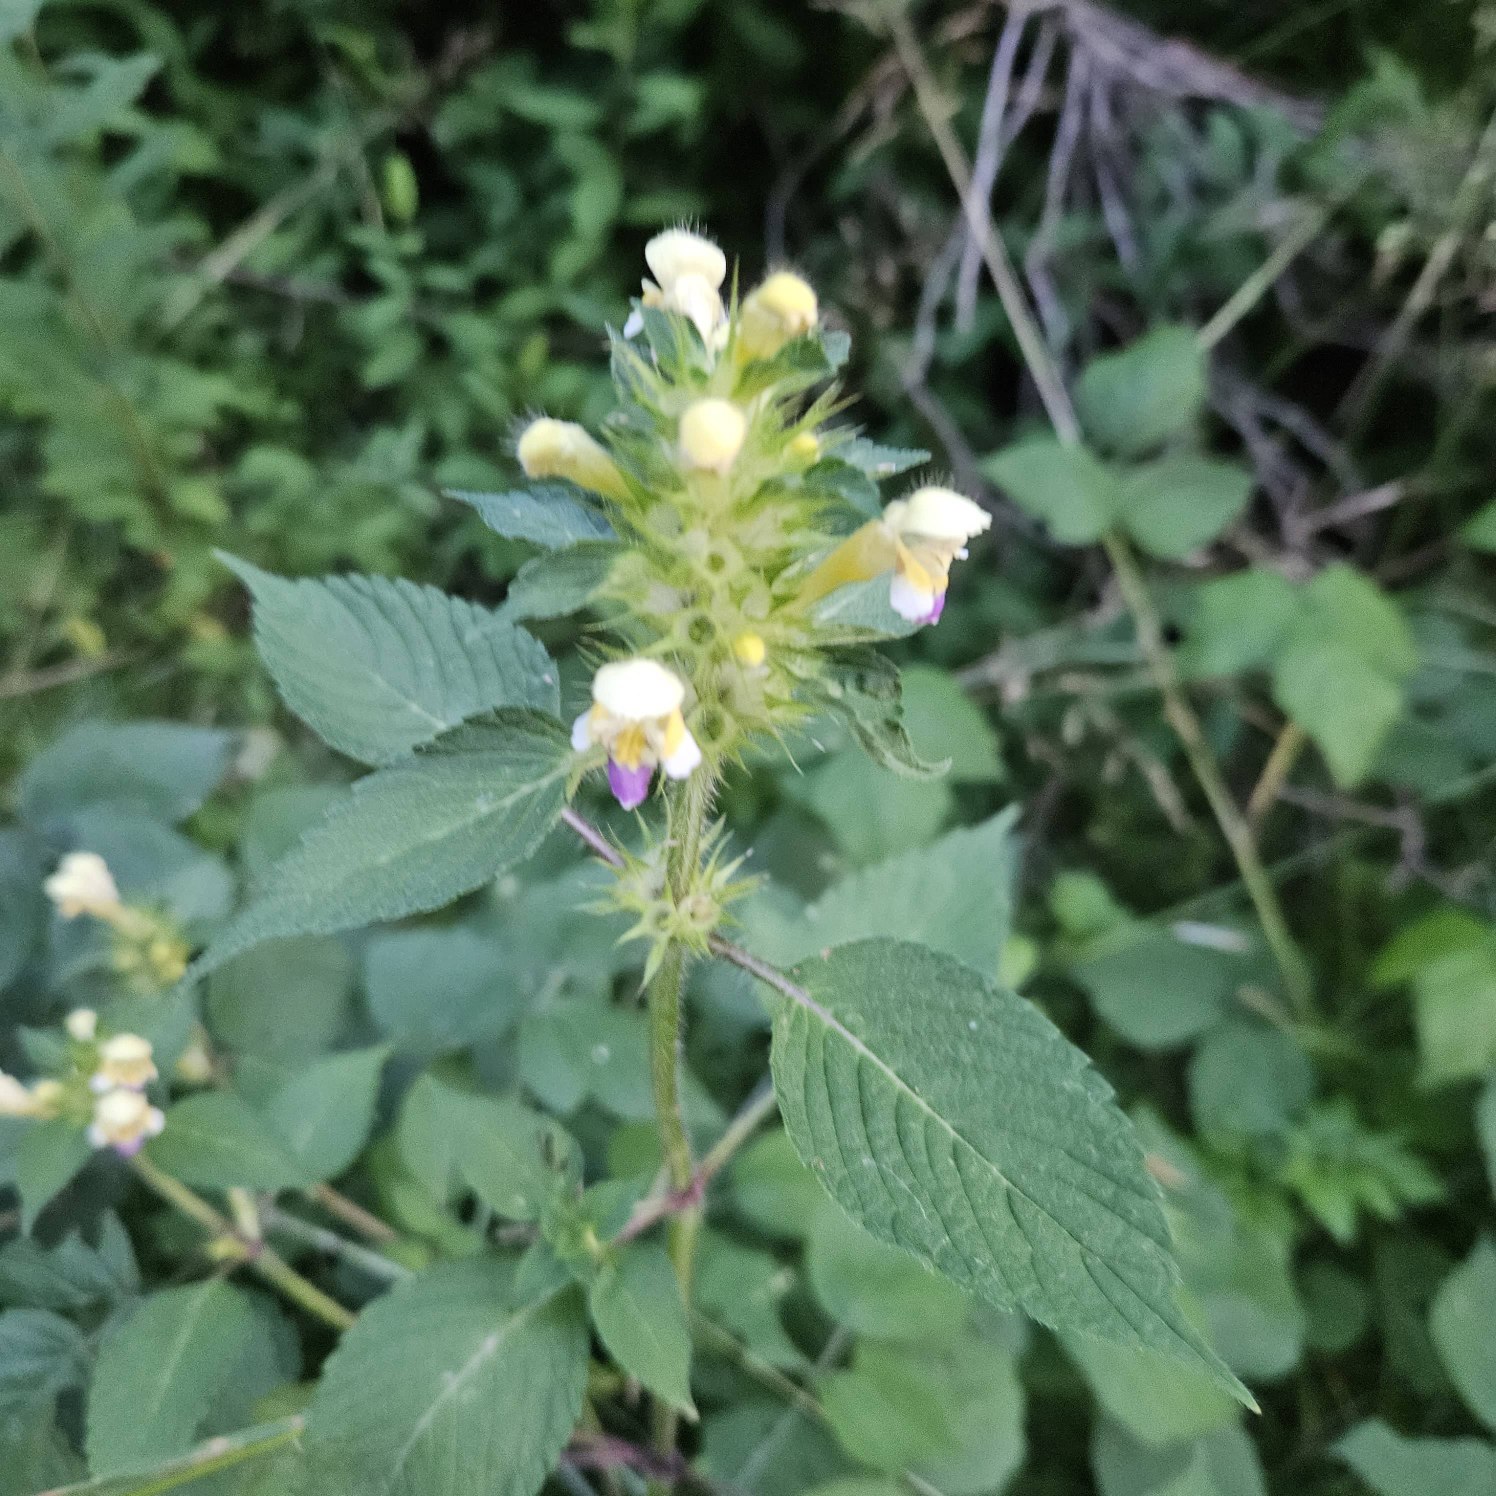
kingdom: Plantae
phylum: Tracheophyta
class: Magnoliopsida
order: Lamiales
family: Lamiaceae
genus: Galeopsis
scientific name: Galeopsis speciosa
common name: Hamp-hanekro
